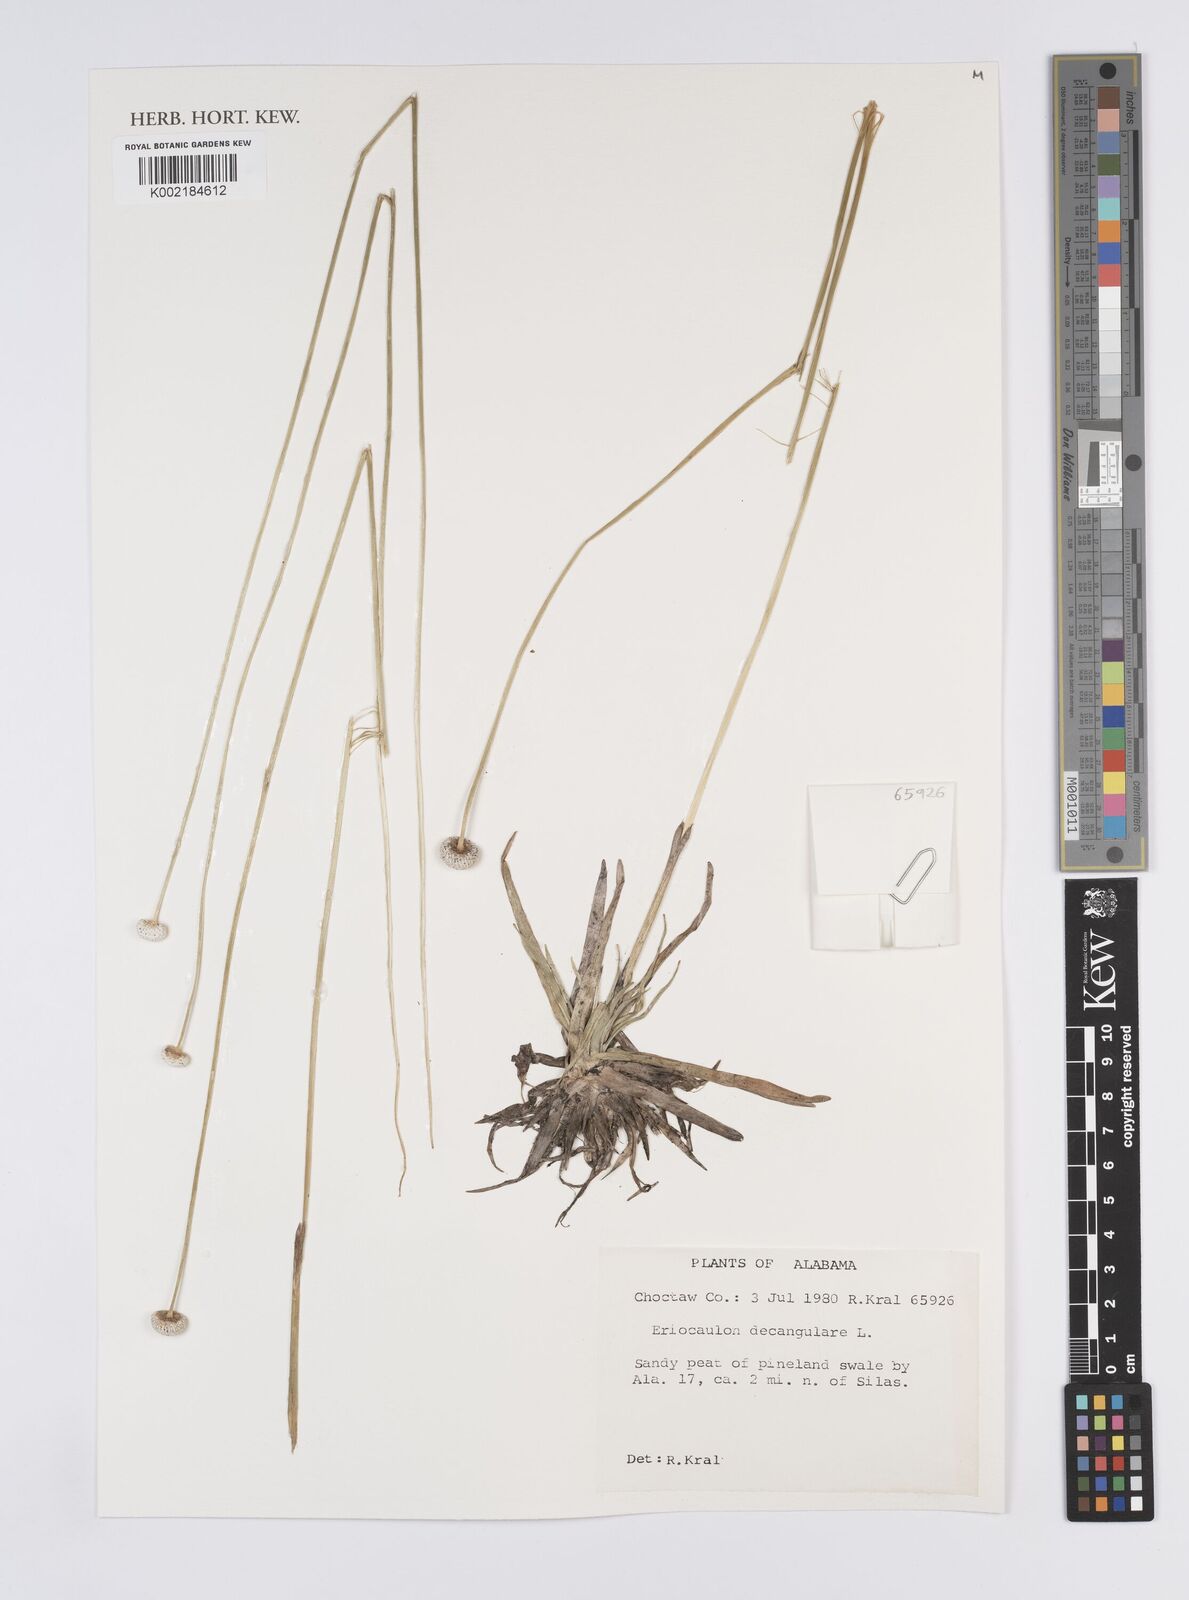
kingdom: Plantae
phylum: Tracheophyta
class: Liliopsida
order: Poales
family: Eriocaulaceae
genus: Eriocaulon
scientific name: Eriocaulon decangulare
